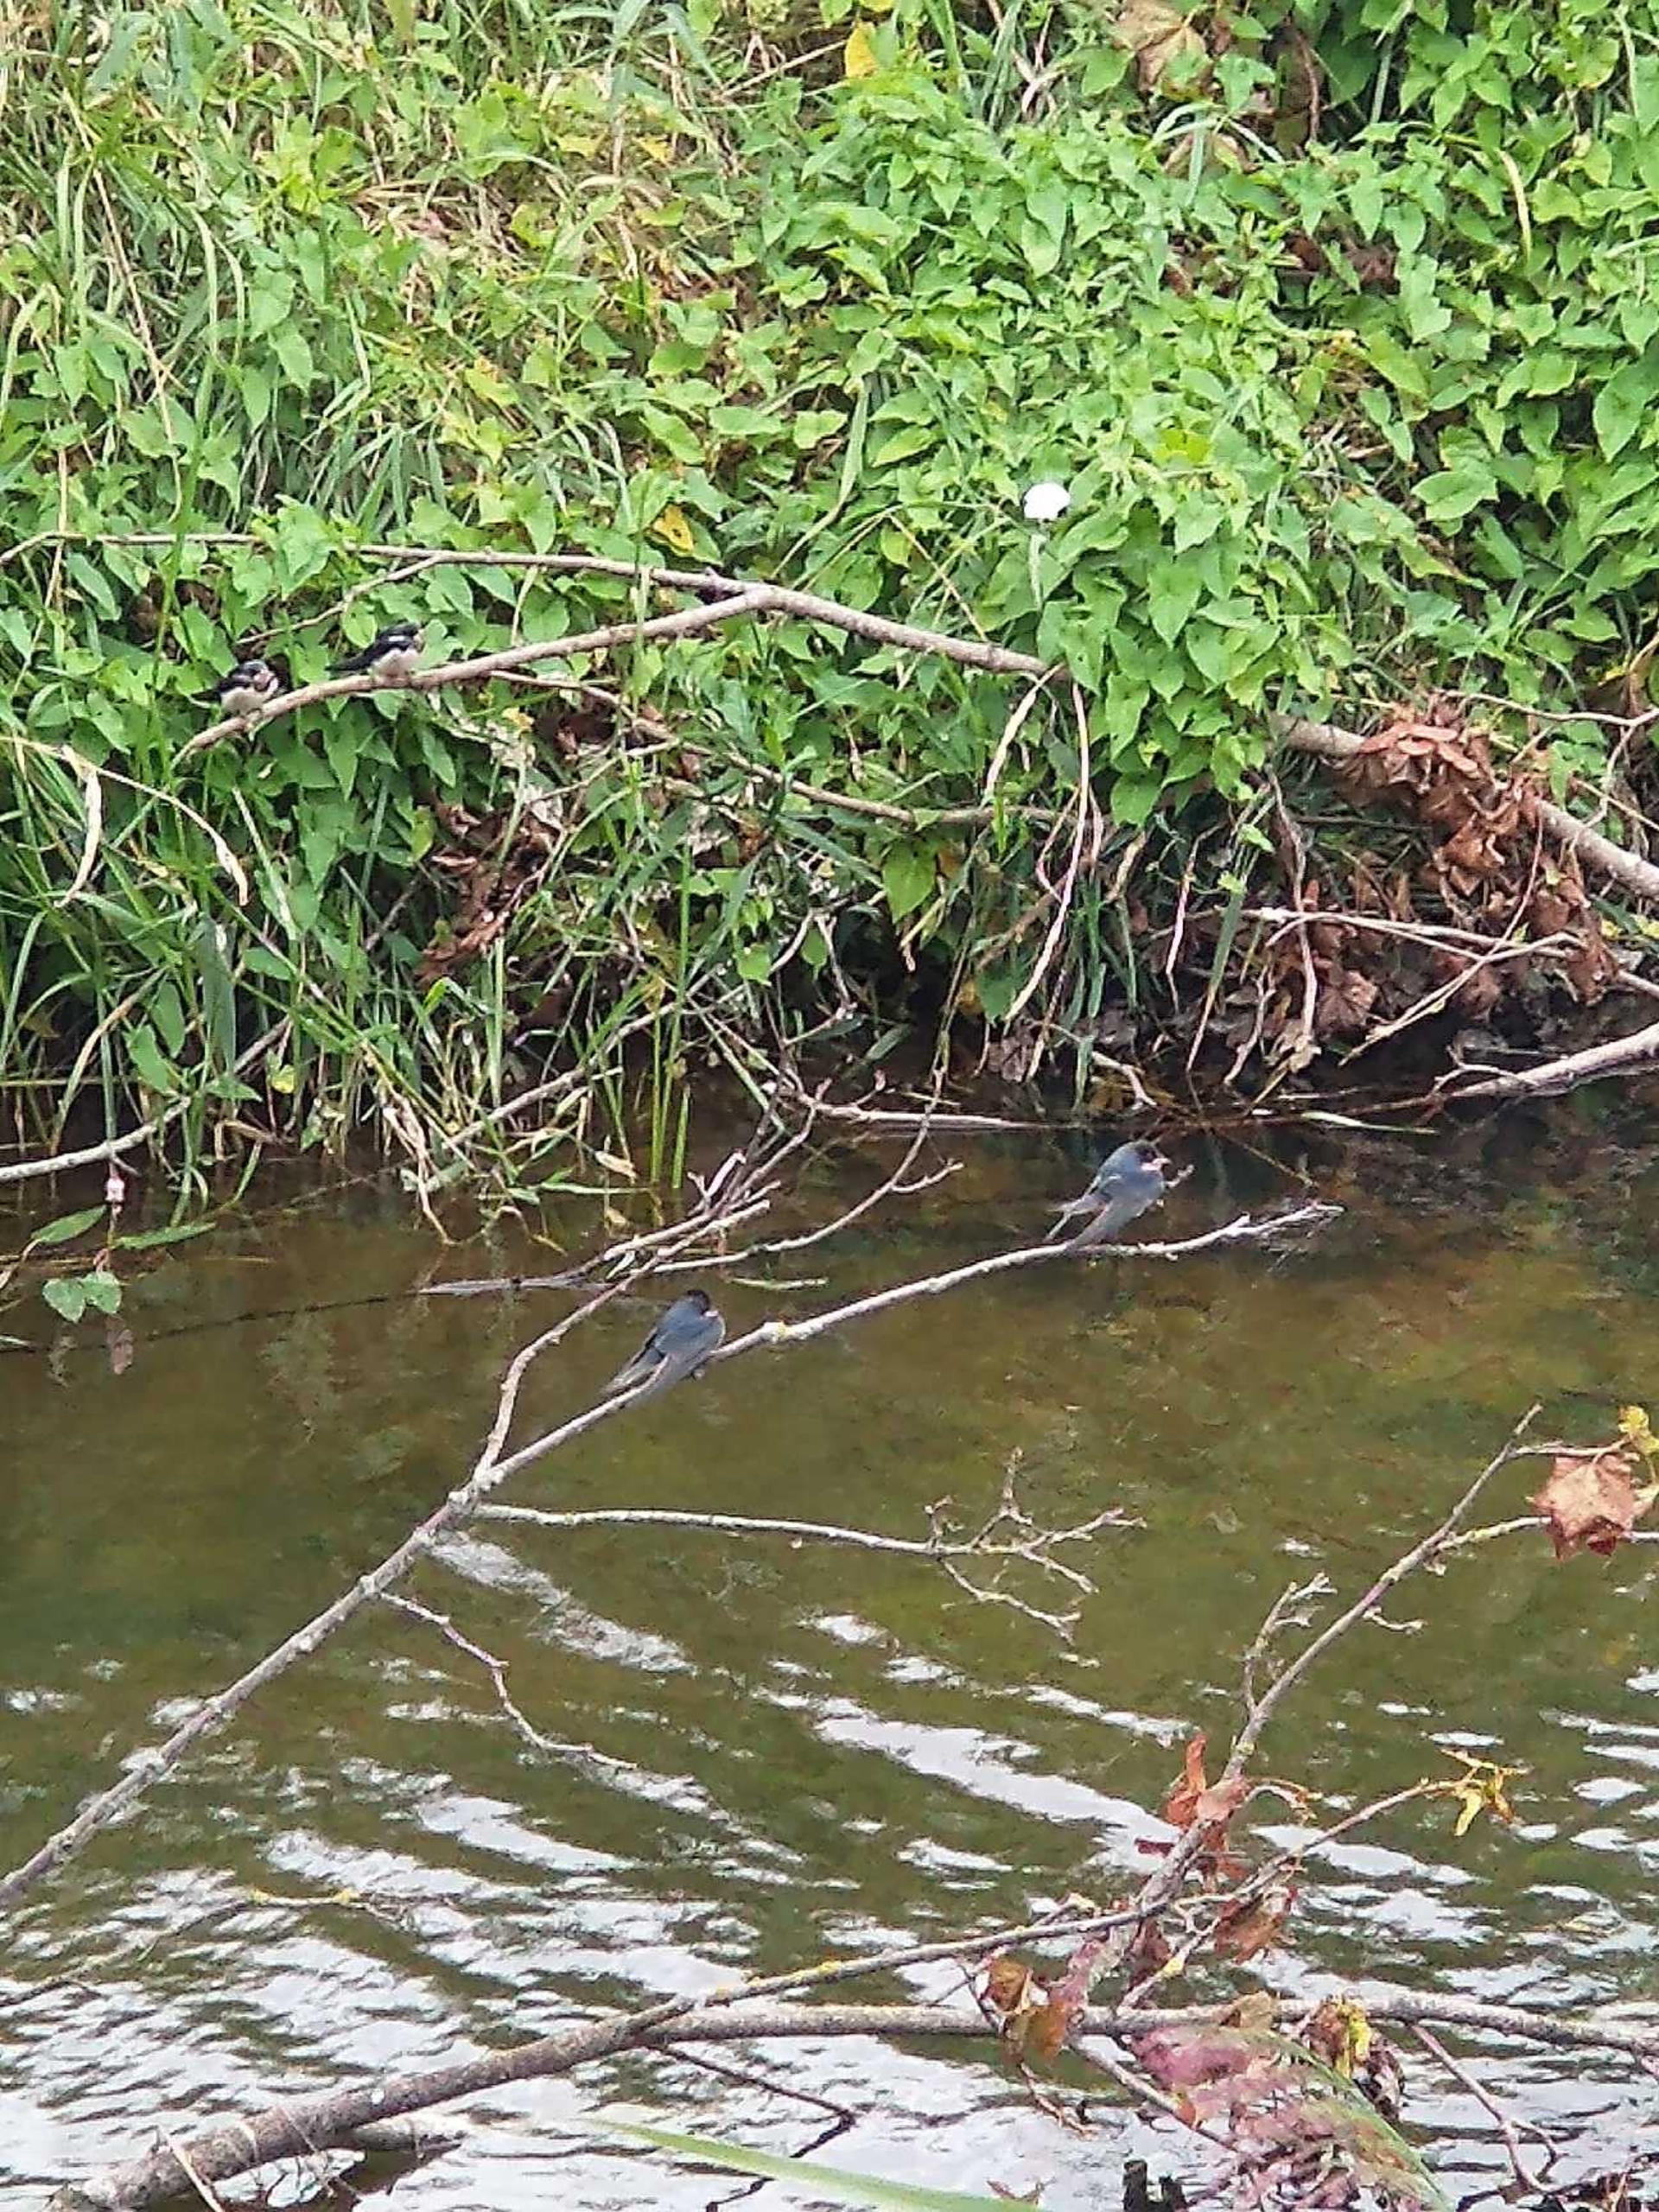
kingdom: Animalia
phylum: Chordata
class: Aves
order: Passeriformes
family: Hirundinidae
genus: Hirundo
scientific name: Hirundo rustica
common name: Landsvale
